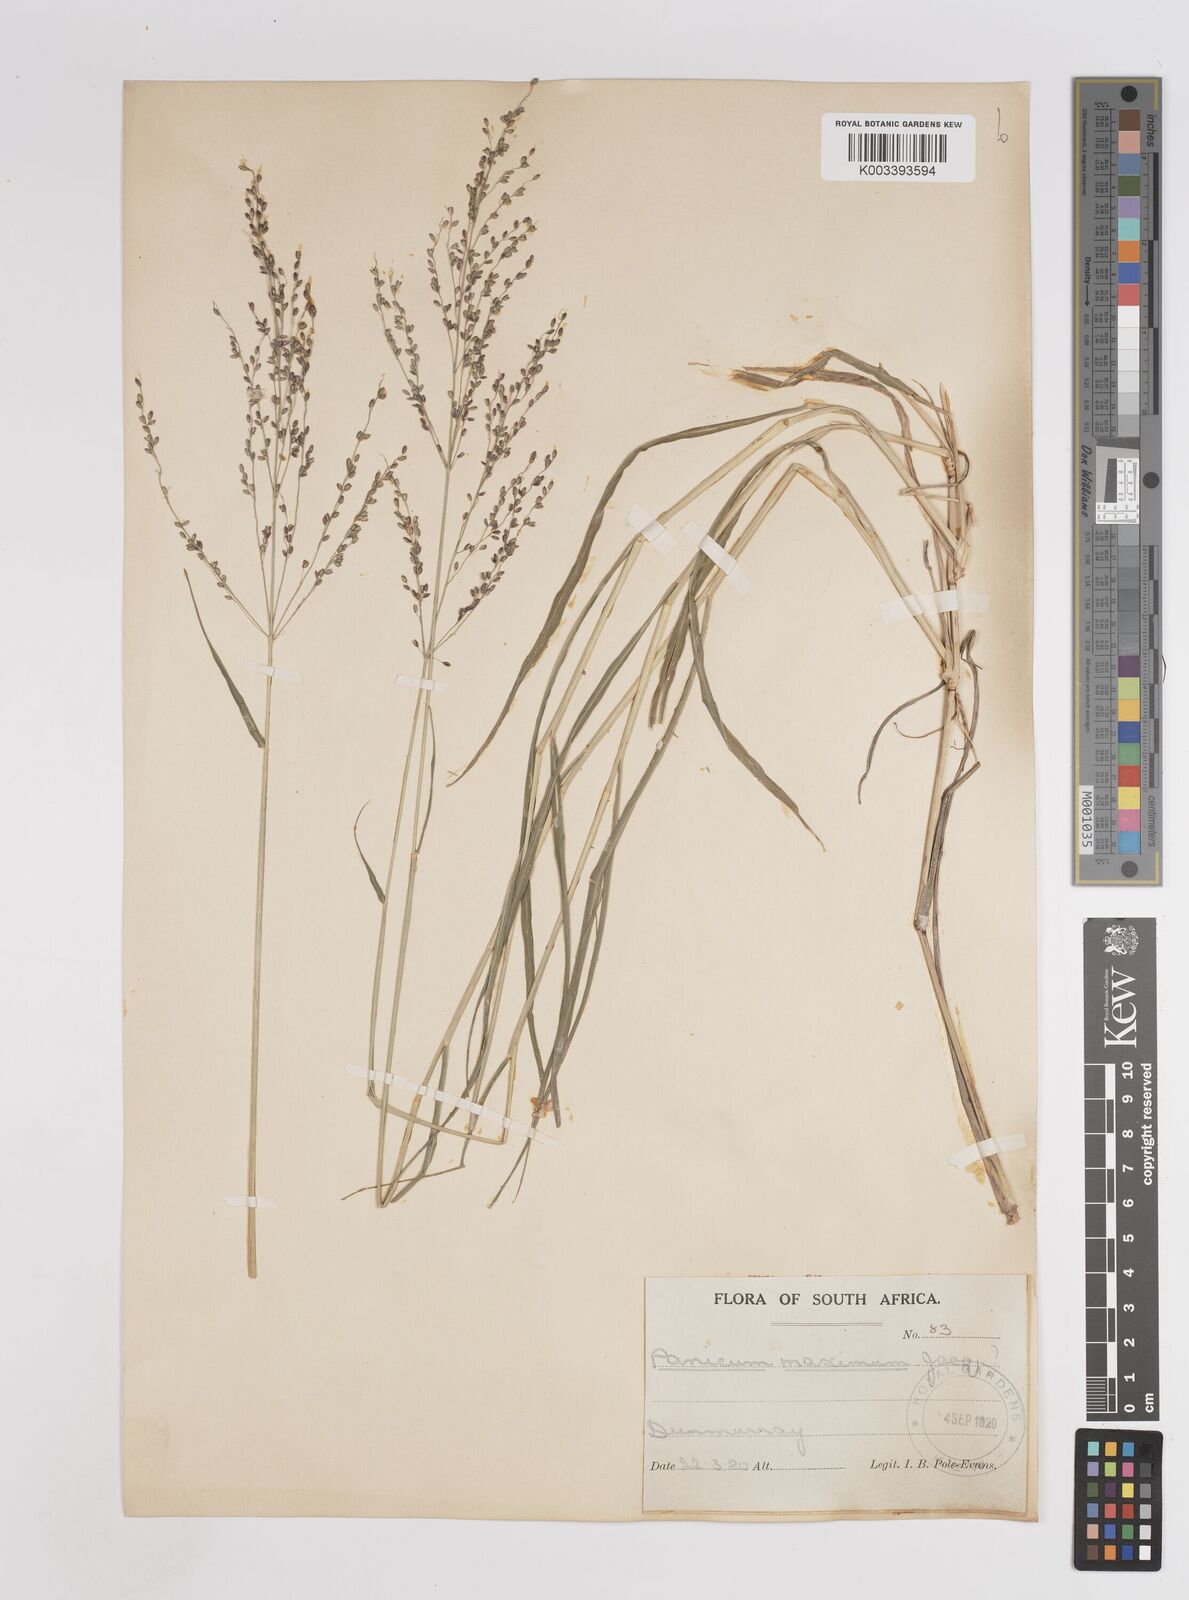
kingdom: Plantae
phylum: Tracheophyta
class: Liliopsida
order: Poales
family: Poaceae
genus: Megathyrsus
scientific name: Megathyrsus maximus
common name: Guineagrass
